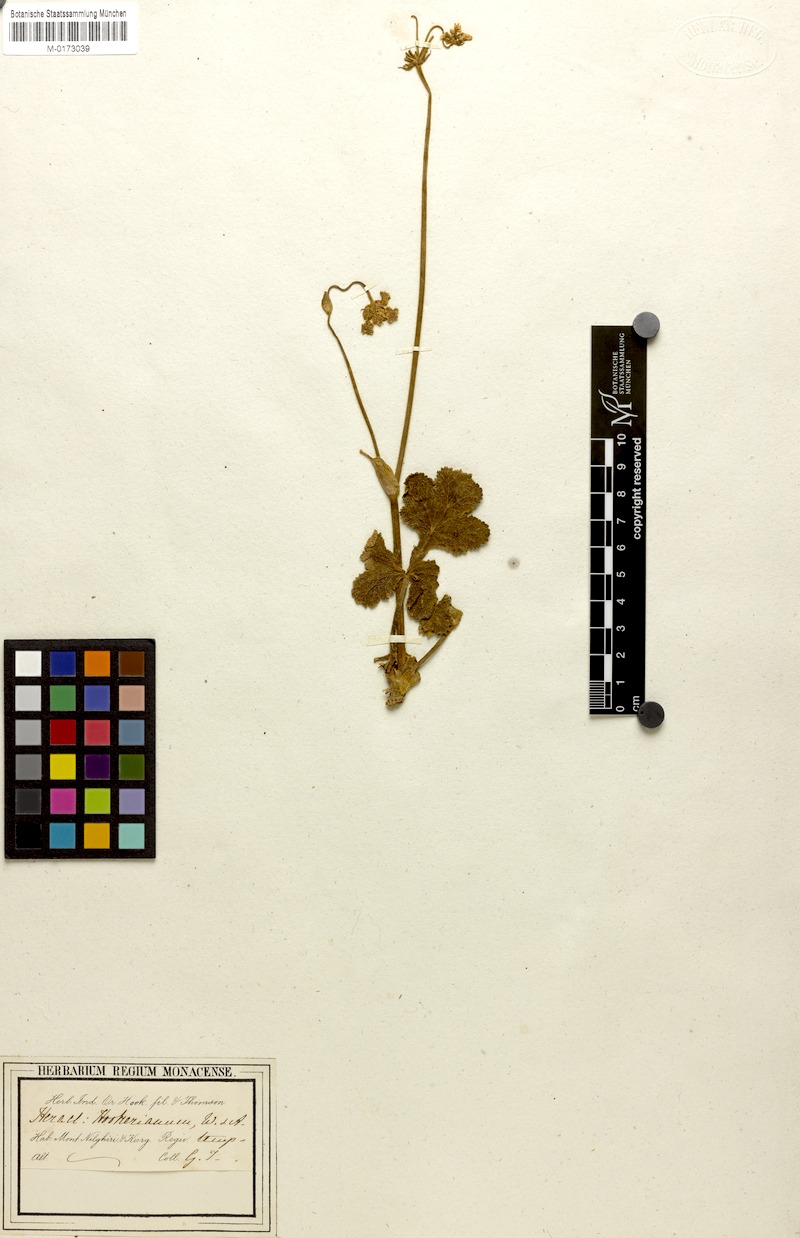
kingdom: Plantae
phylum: Tracheophyta
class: Magnoliopsida
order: Apiales
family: Apiaceae
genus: Tetrataenium
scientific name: Tetrataenium hookerianum
